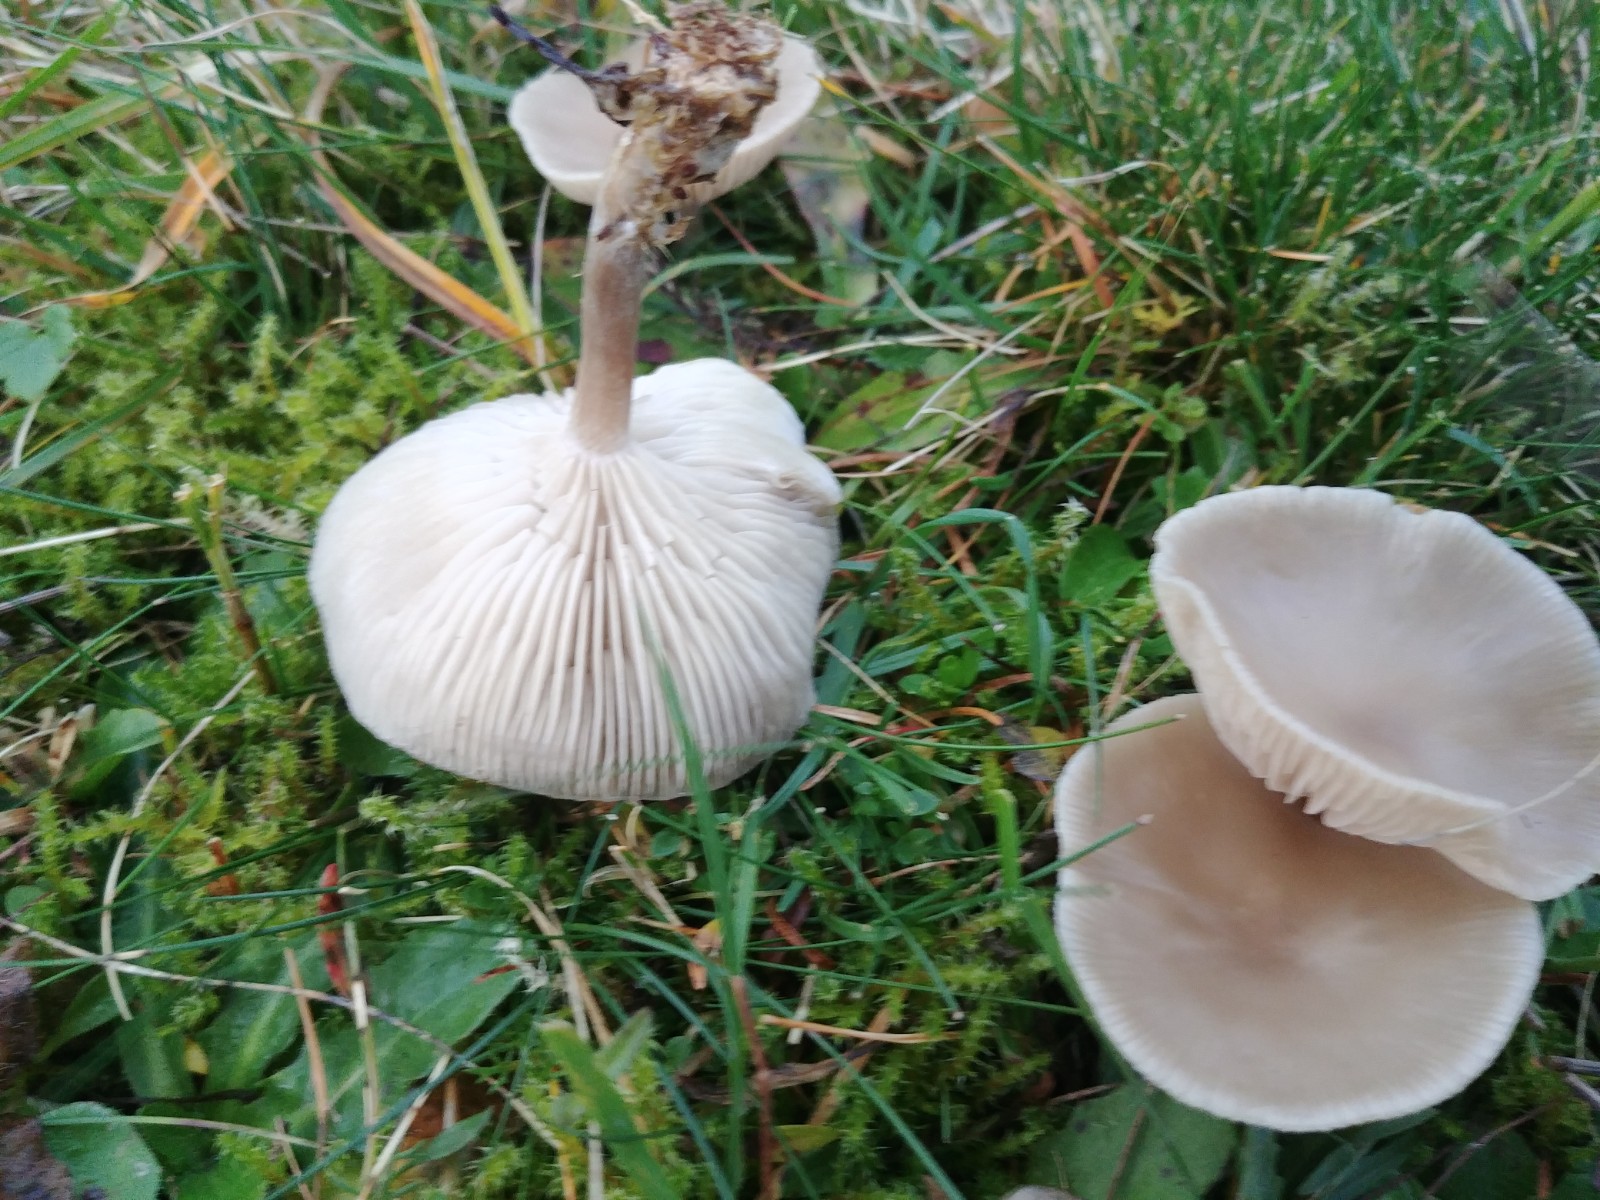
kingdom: Fungi
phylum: Basidiomycota
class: Agaricomycetes
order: Agaricales
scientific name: Agaricales
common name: champignonordenen
